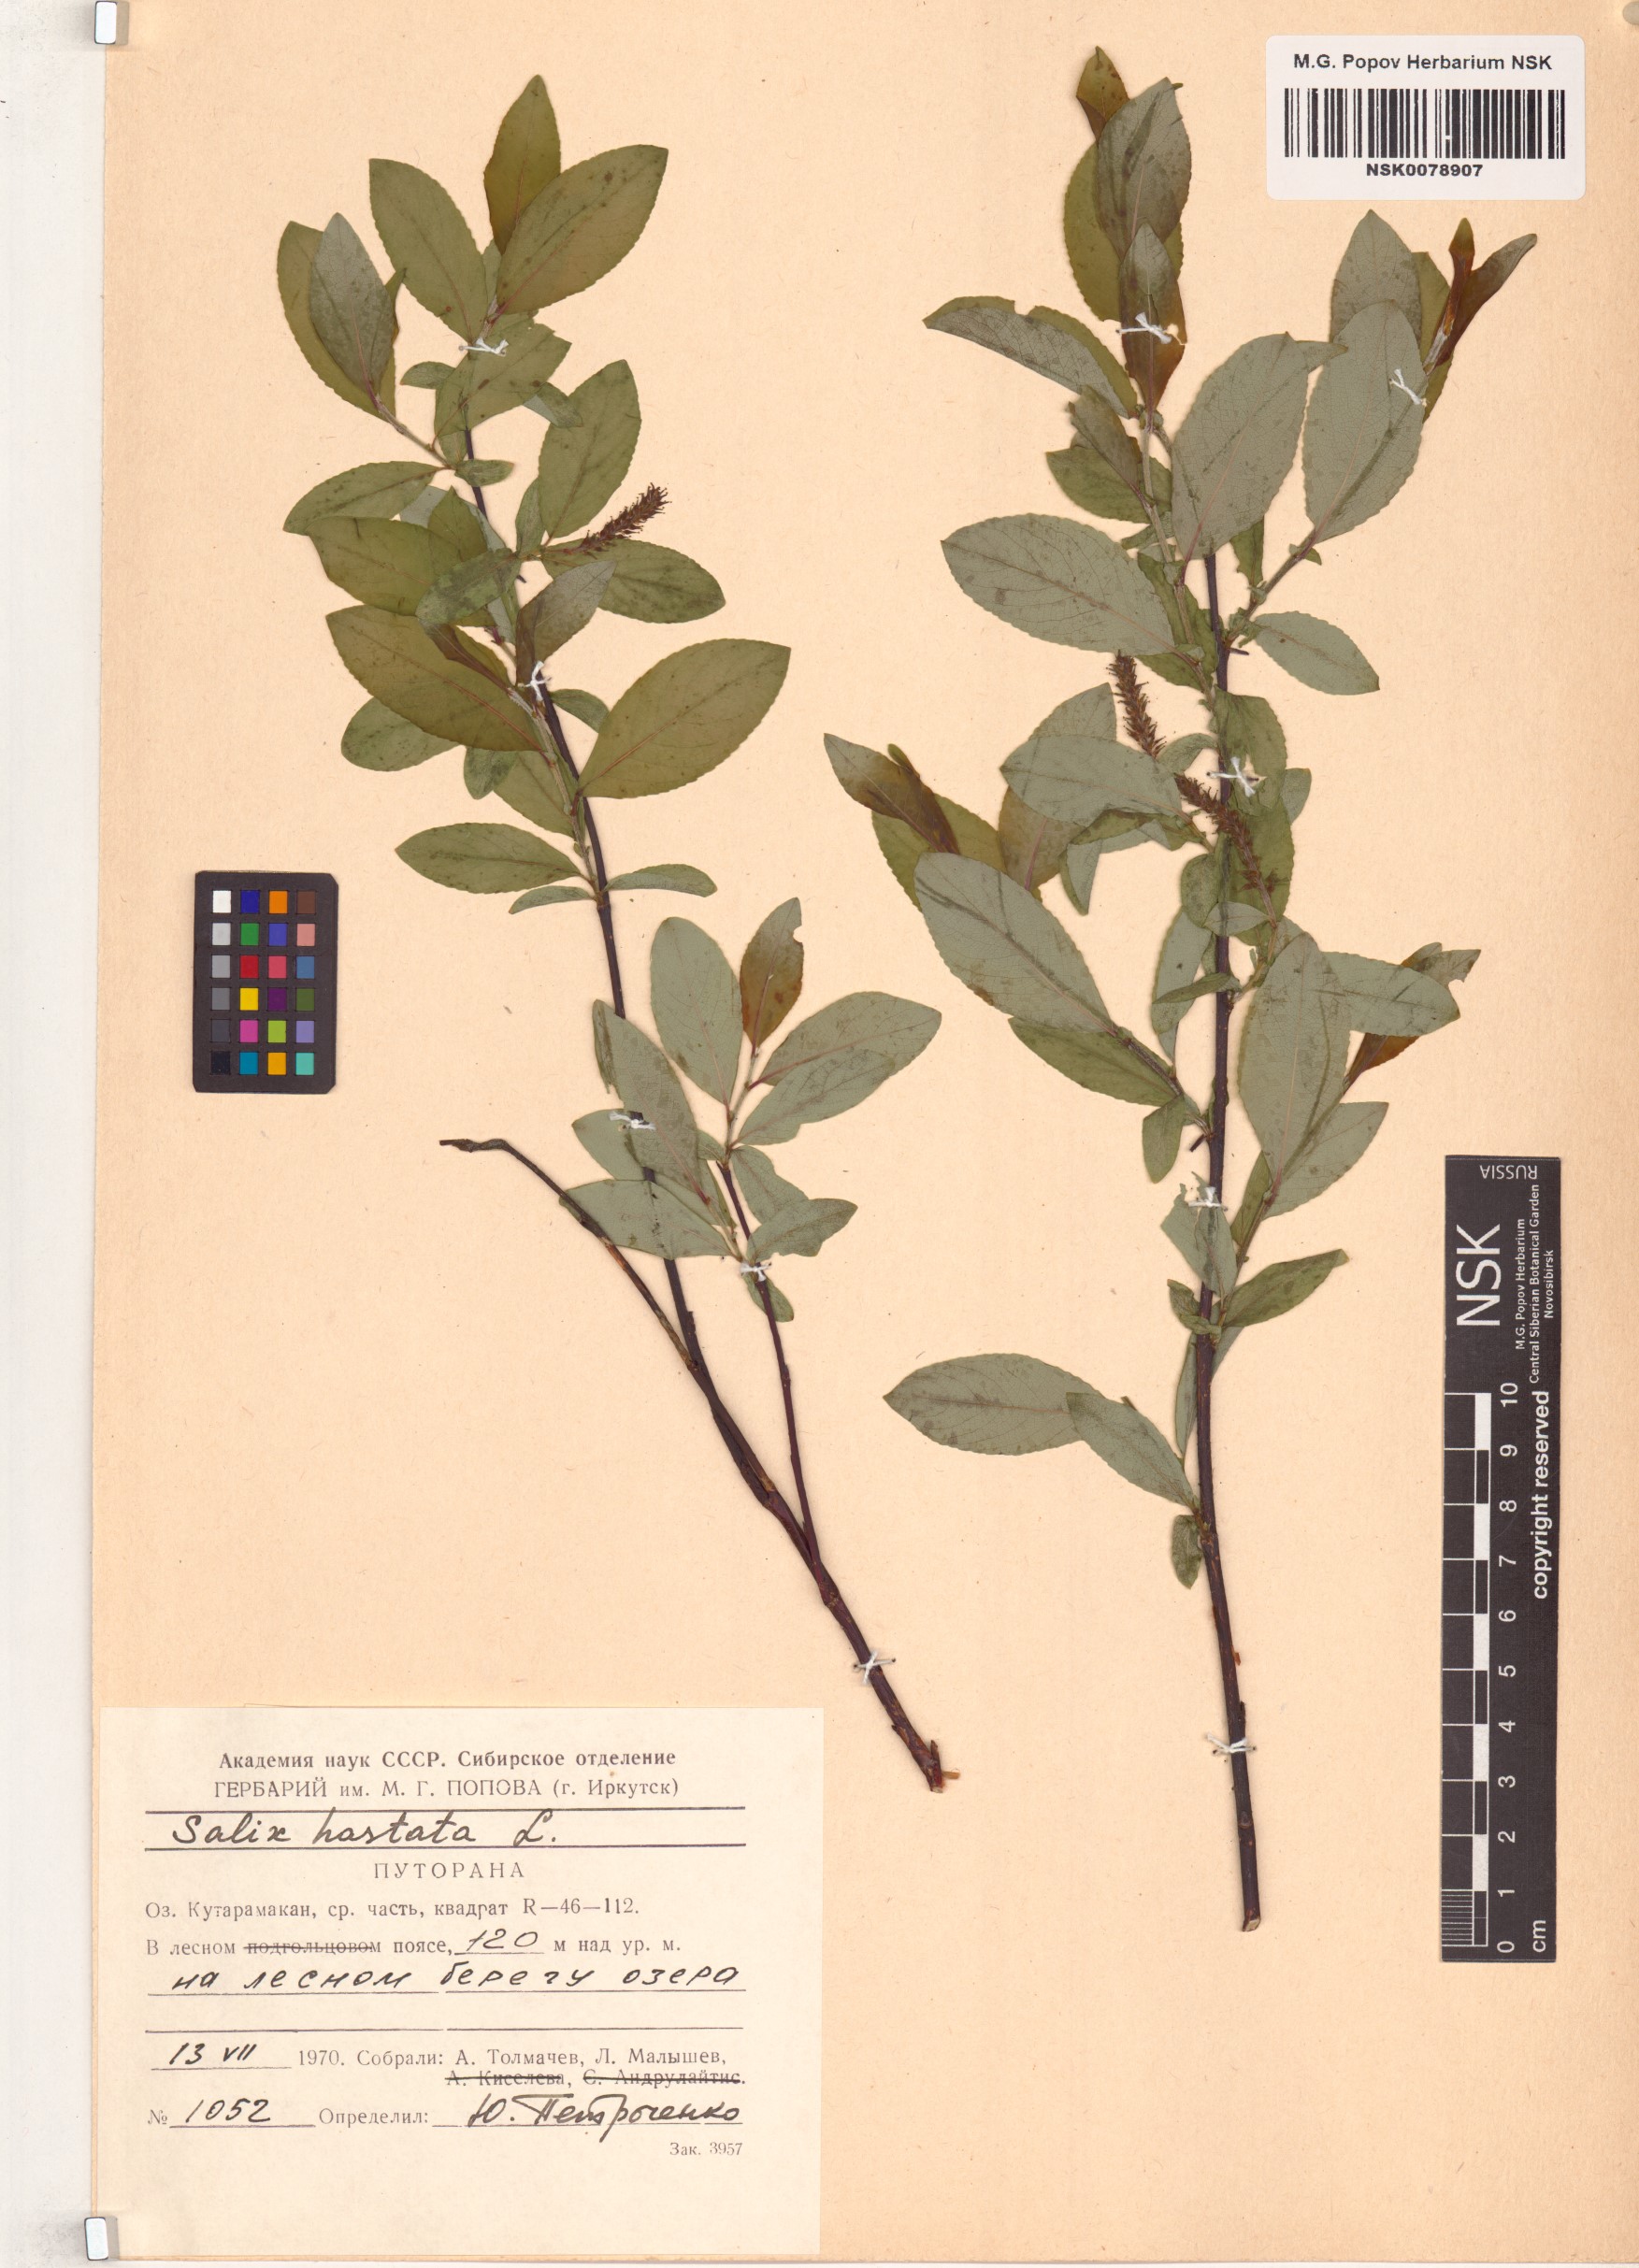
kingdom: Plantae
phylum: Tracheophyta
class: Magnoliopsida
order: Malpighiales
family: Salicaceae
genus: Salix
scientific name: Salix hastata
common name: Halberd willow
